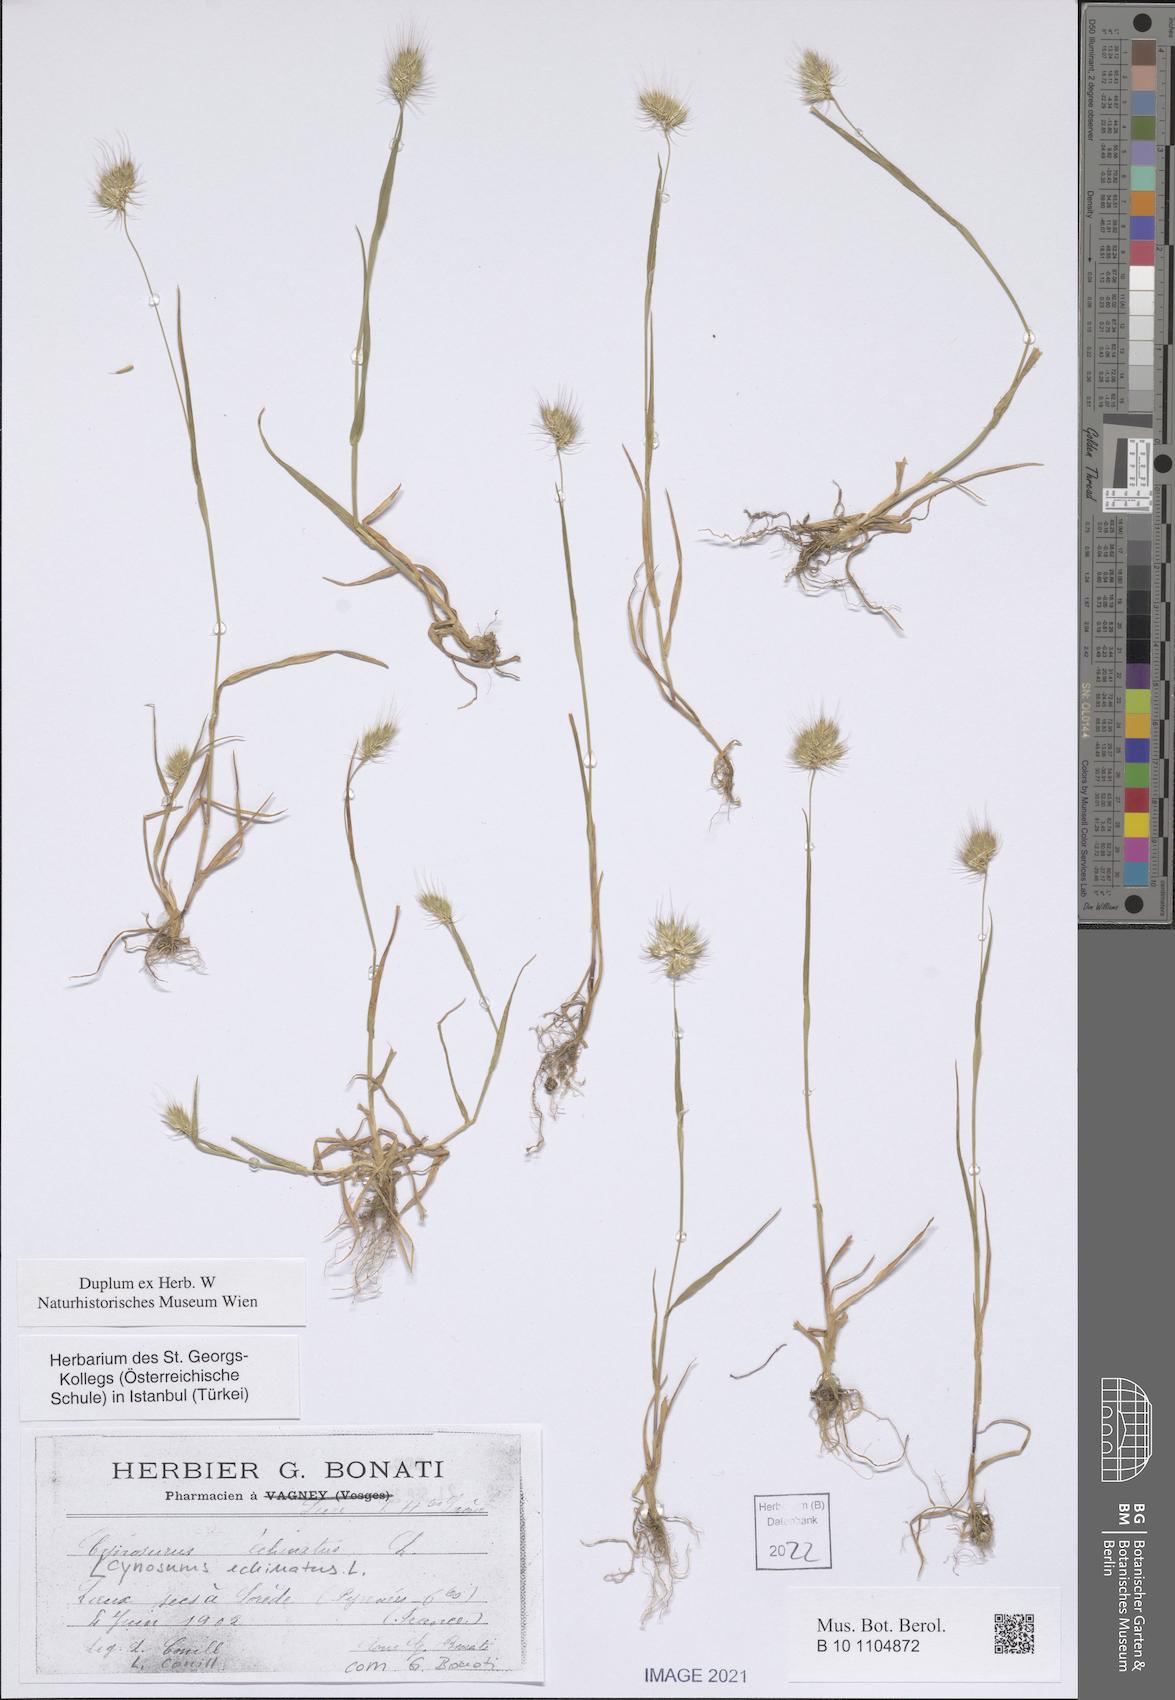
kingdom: Plantae
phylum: Tracheophyta
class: Liliopsida
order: Poales
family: Poaceae
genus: Cynosurus
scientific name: Cynosurus echinatus
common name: Rough dog's-tail
